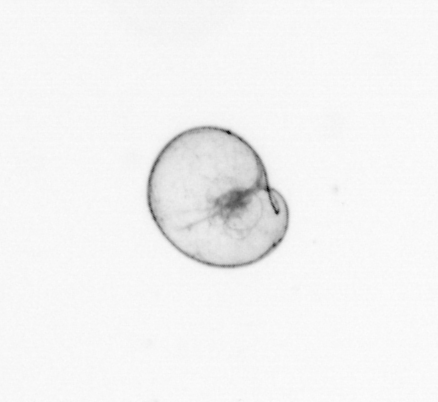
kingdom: Chromista
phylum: Myzozoa
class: Dinophyceae
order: Noctilucales
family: Noctilucaceae
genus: Noctiluca
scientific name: Noctiluca scintillans
